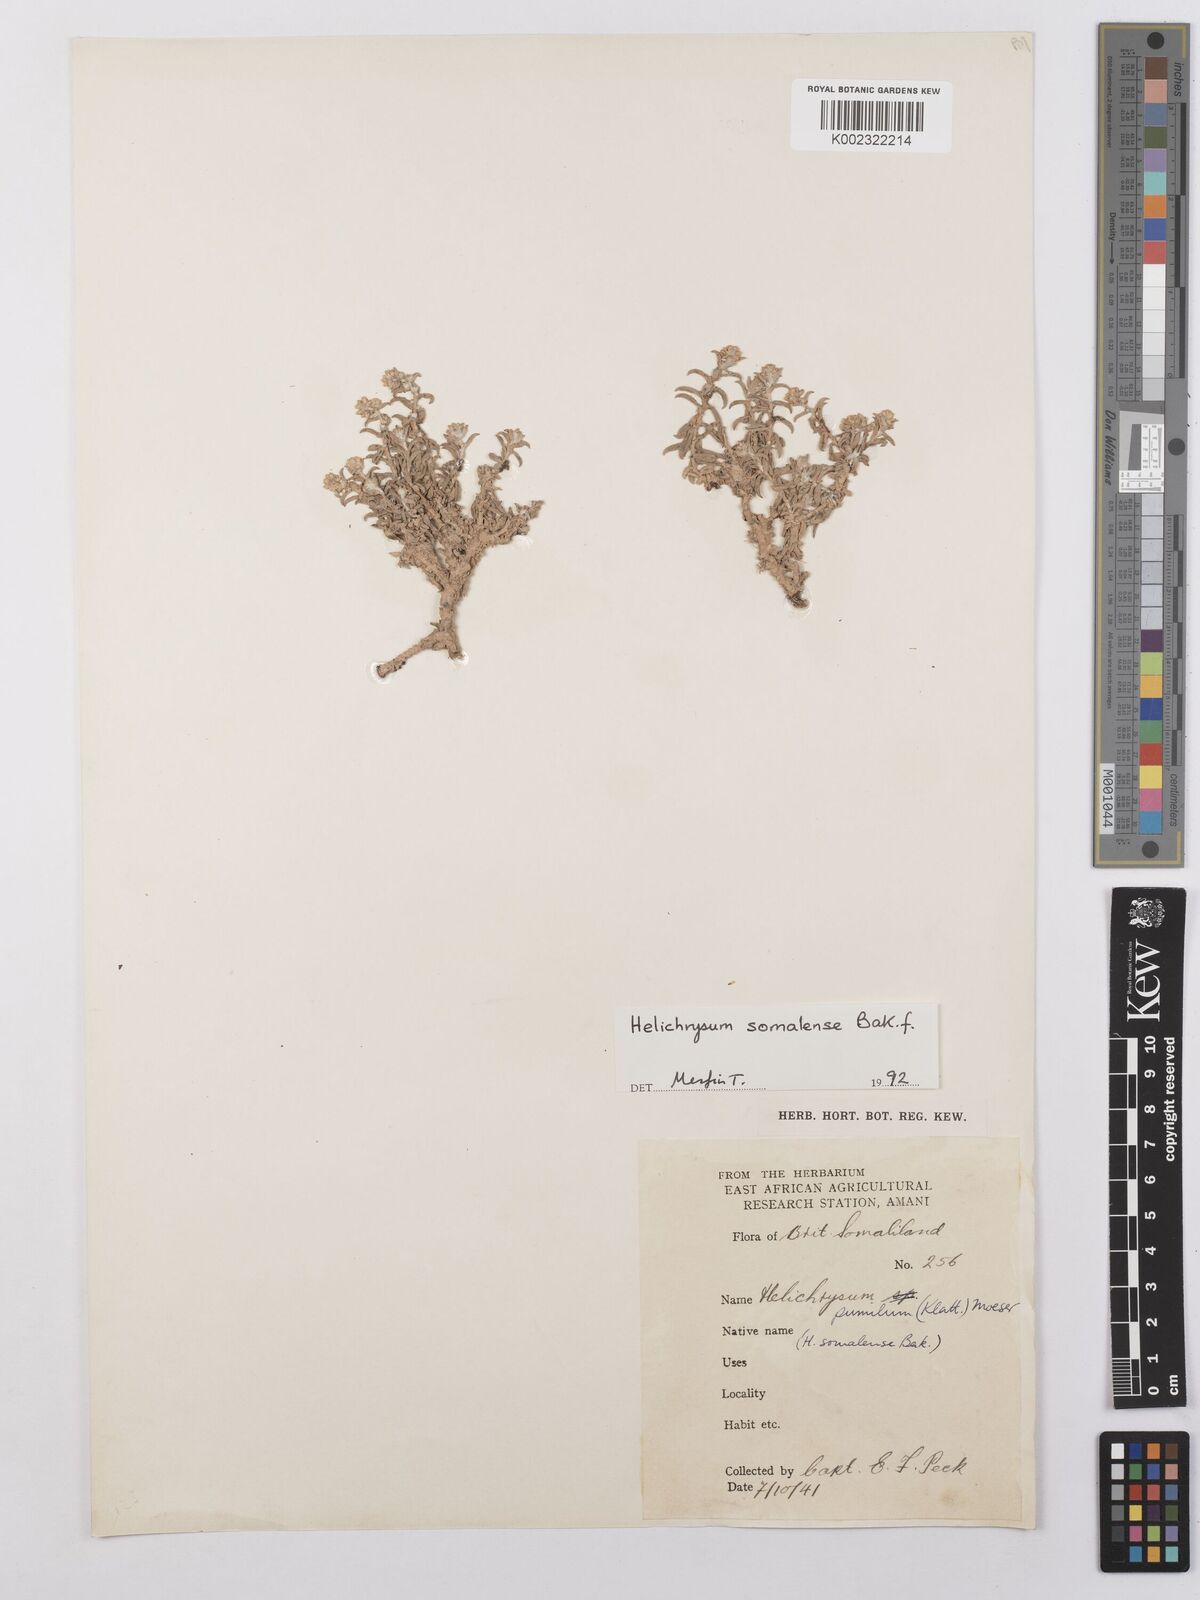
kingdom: Plantae
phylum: Tracheophyta
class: Magnoliopsida
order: Asterales
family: Asteraceae
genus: Helichrysum
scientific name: Helichrysum somalense
